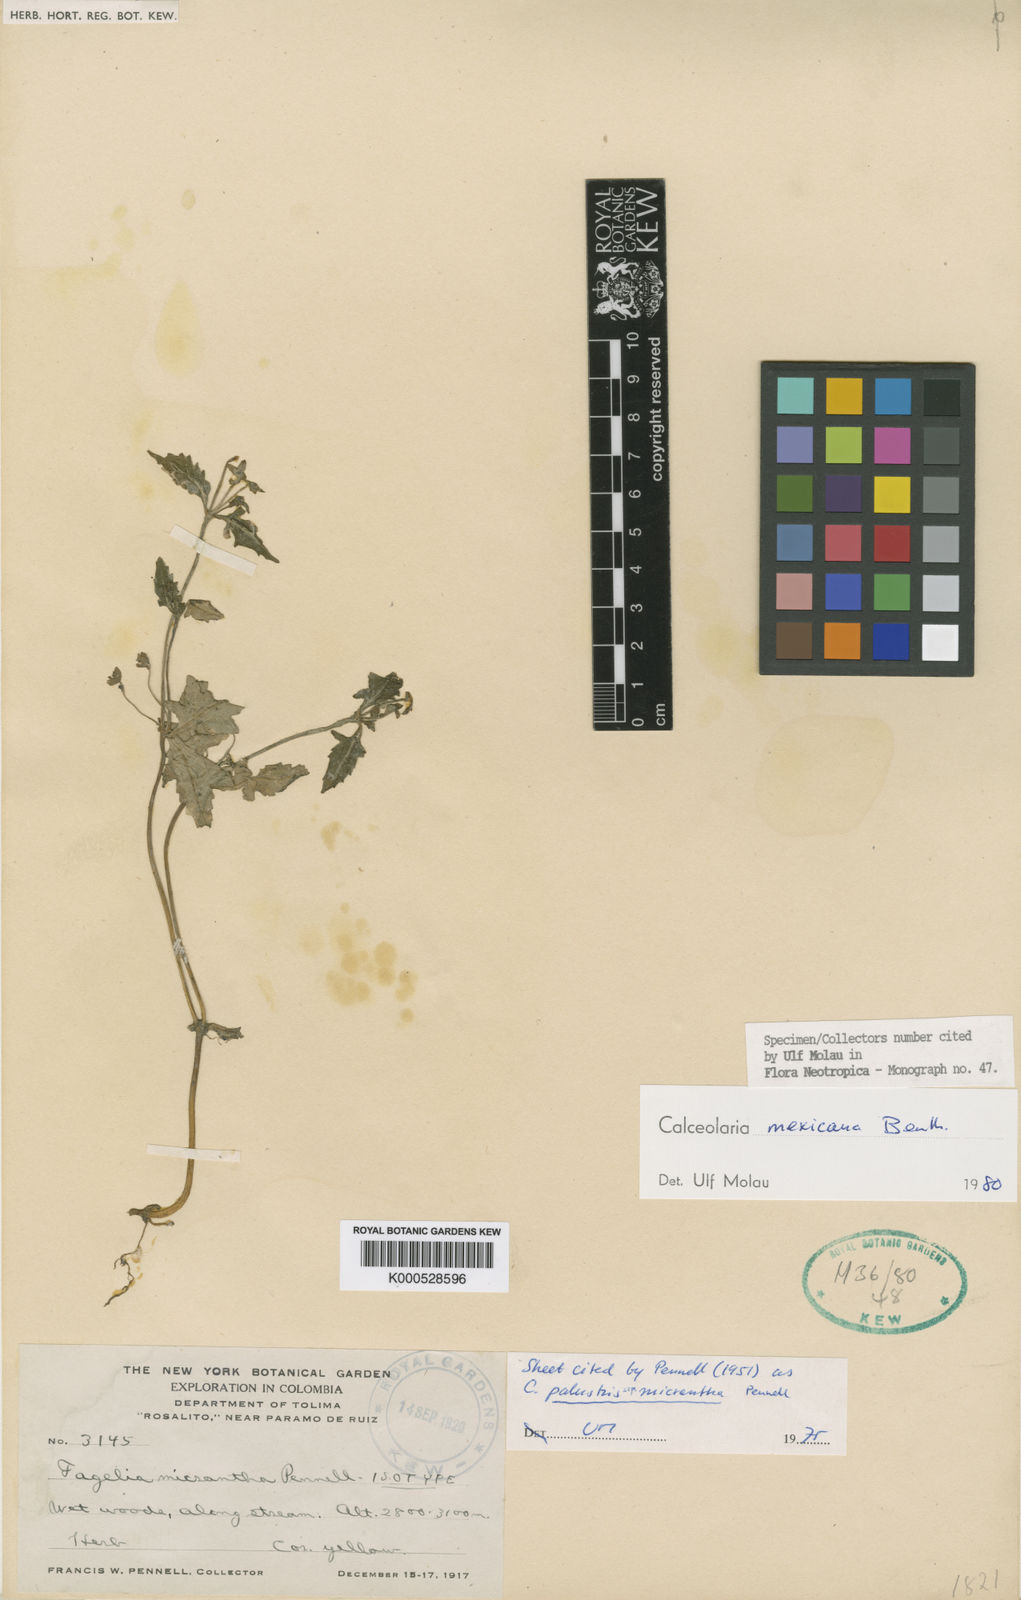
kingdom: Plantae
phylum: Tracheophyta
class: Magnoliopsida
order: Lamiales
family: Calceolariaceae
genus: Calceolaria
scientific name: Calceolaria mexicana
